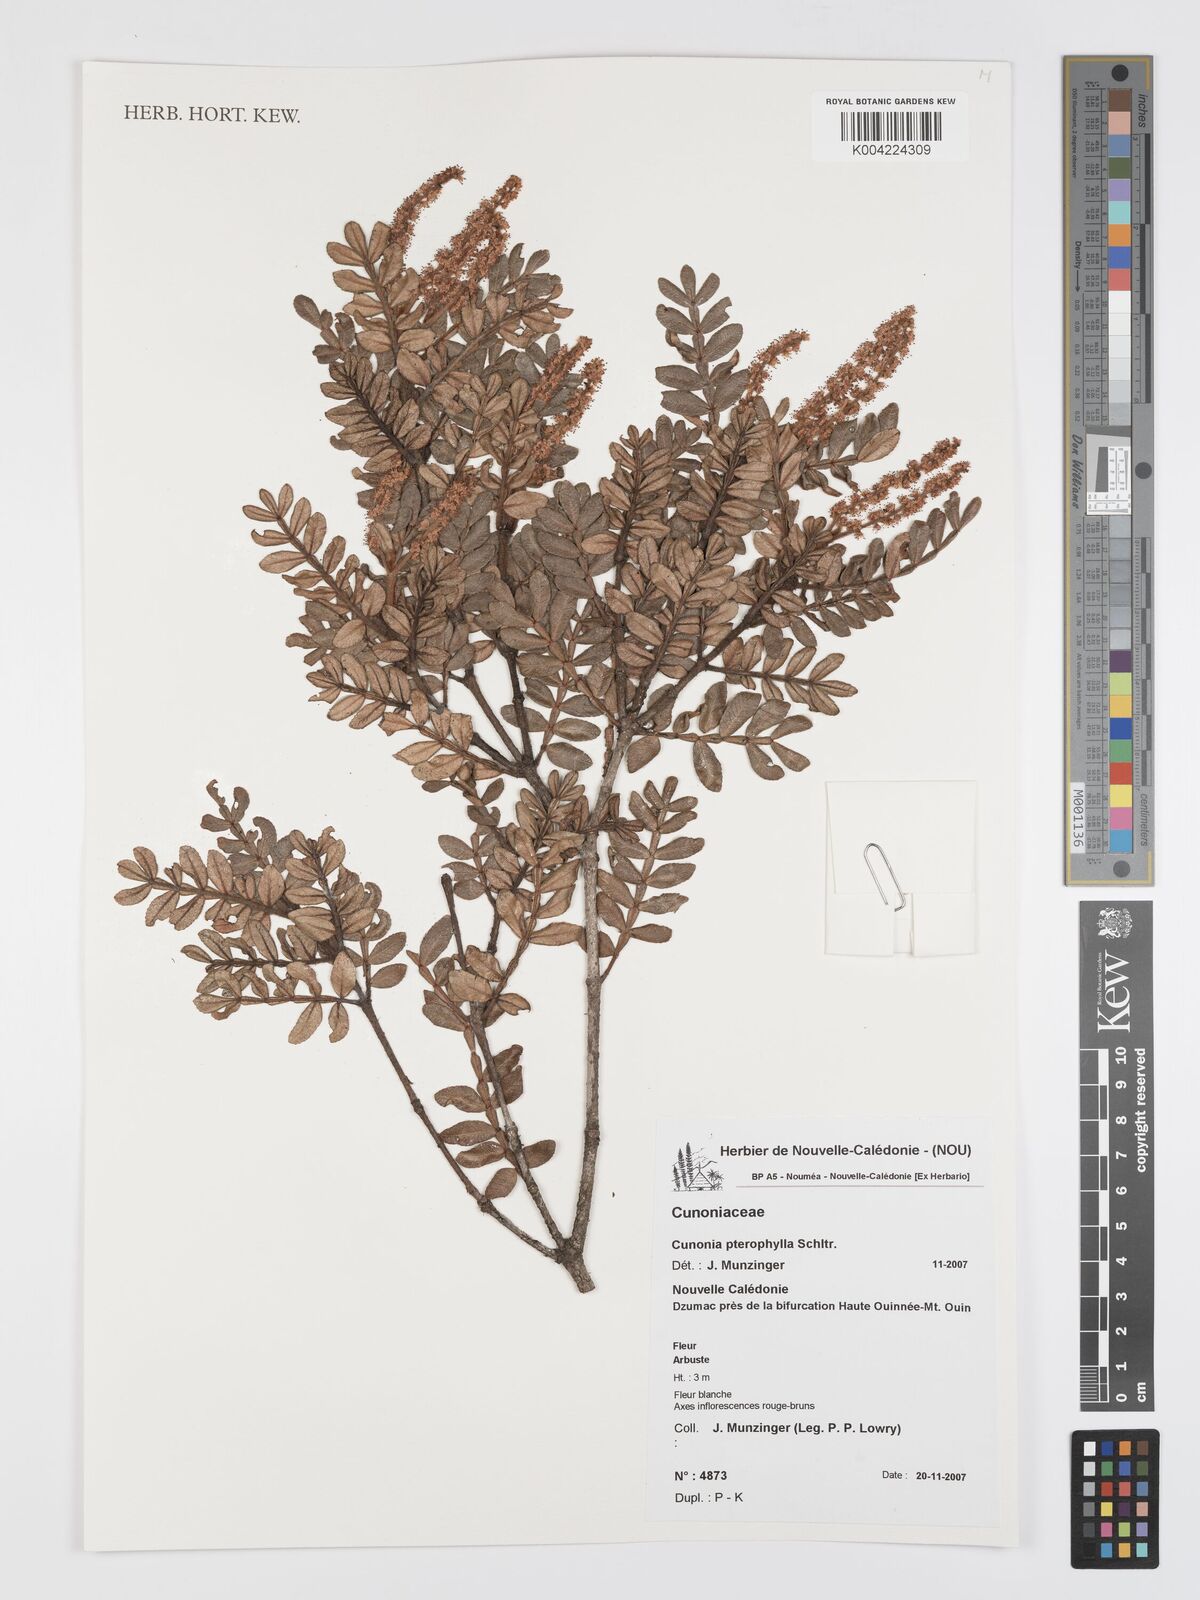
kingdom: Plantae
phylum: Tracheophyta
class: Magnoliopsida
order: Oxalidales
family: Cunoniaceae
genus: Cunonia
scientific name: Cunonia pterophylla
